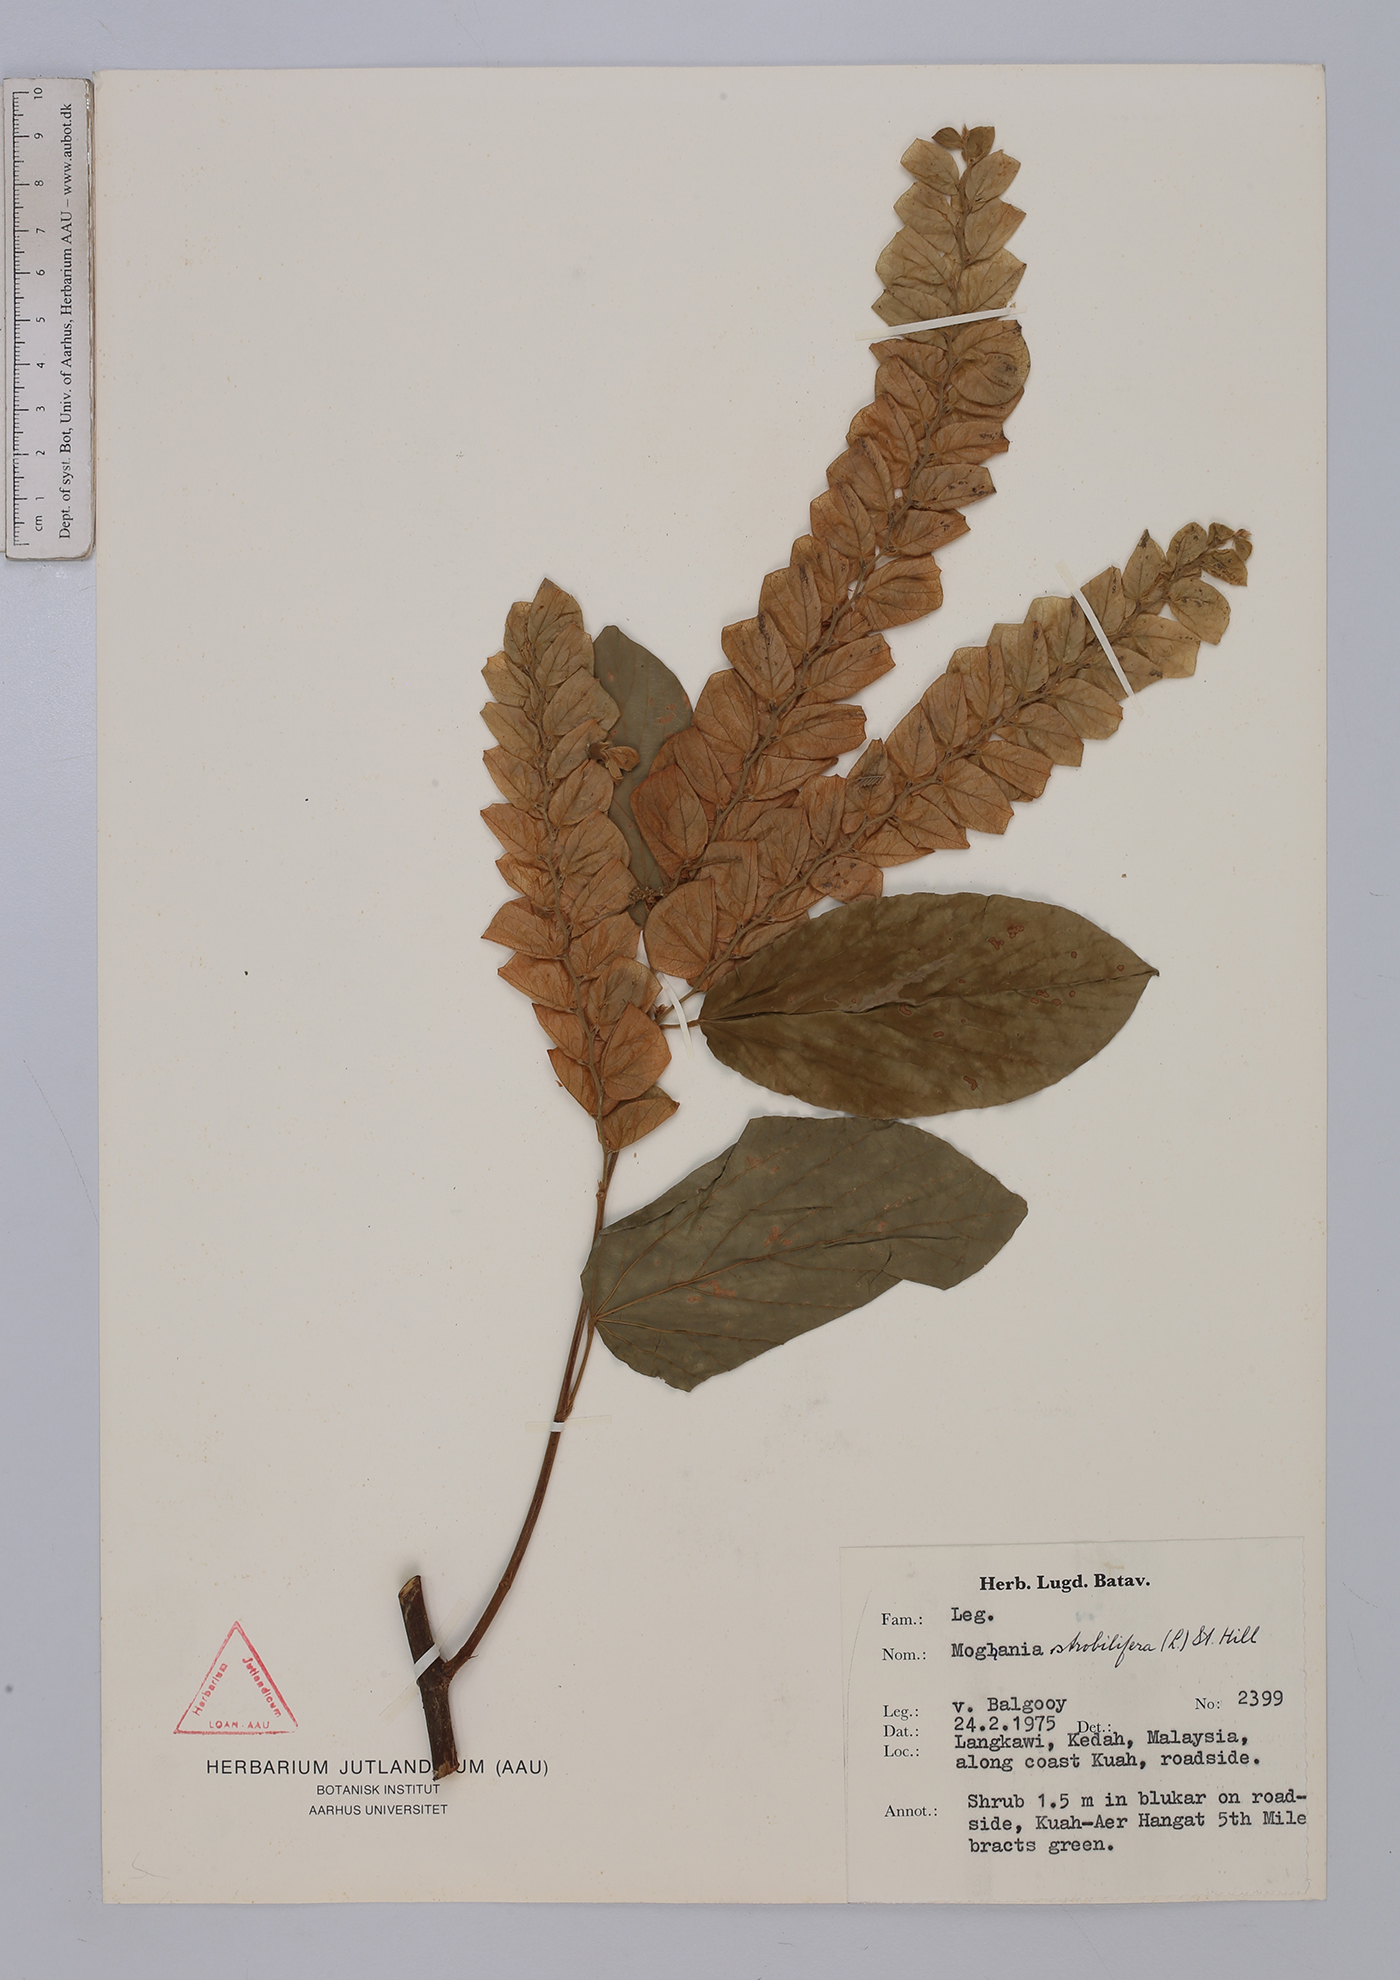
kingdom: Plantae
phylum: Tracheophyta
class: Magnoliopsida
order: Fabales
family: Fabaceae
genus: Flemingia
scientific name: Flemingia strobilifera
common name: Wild hops
